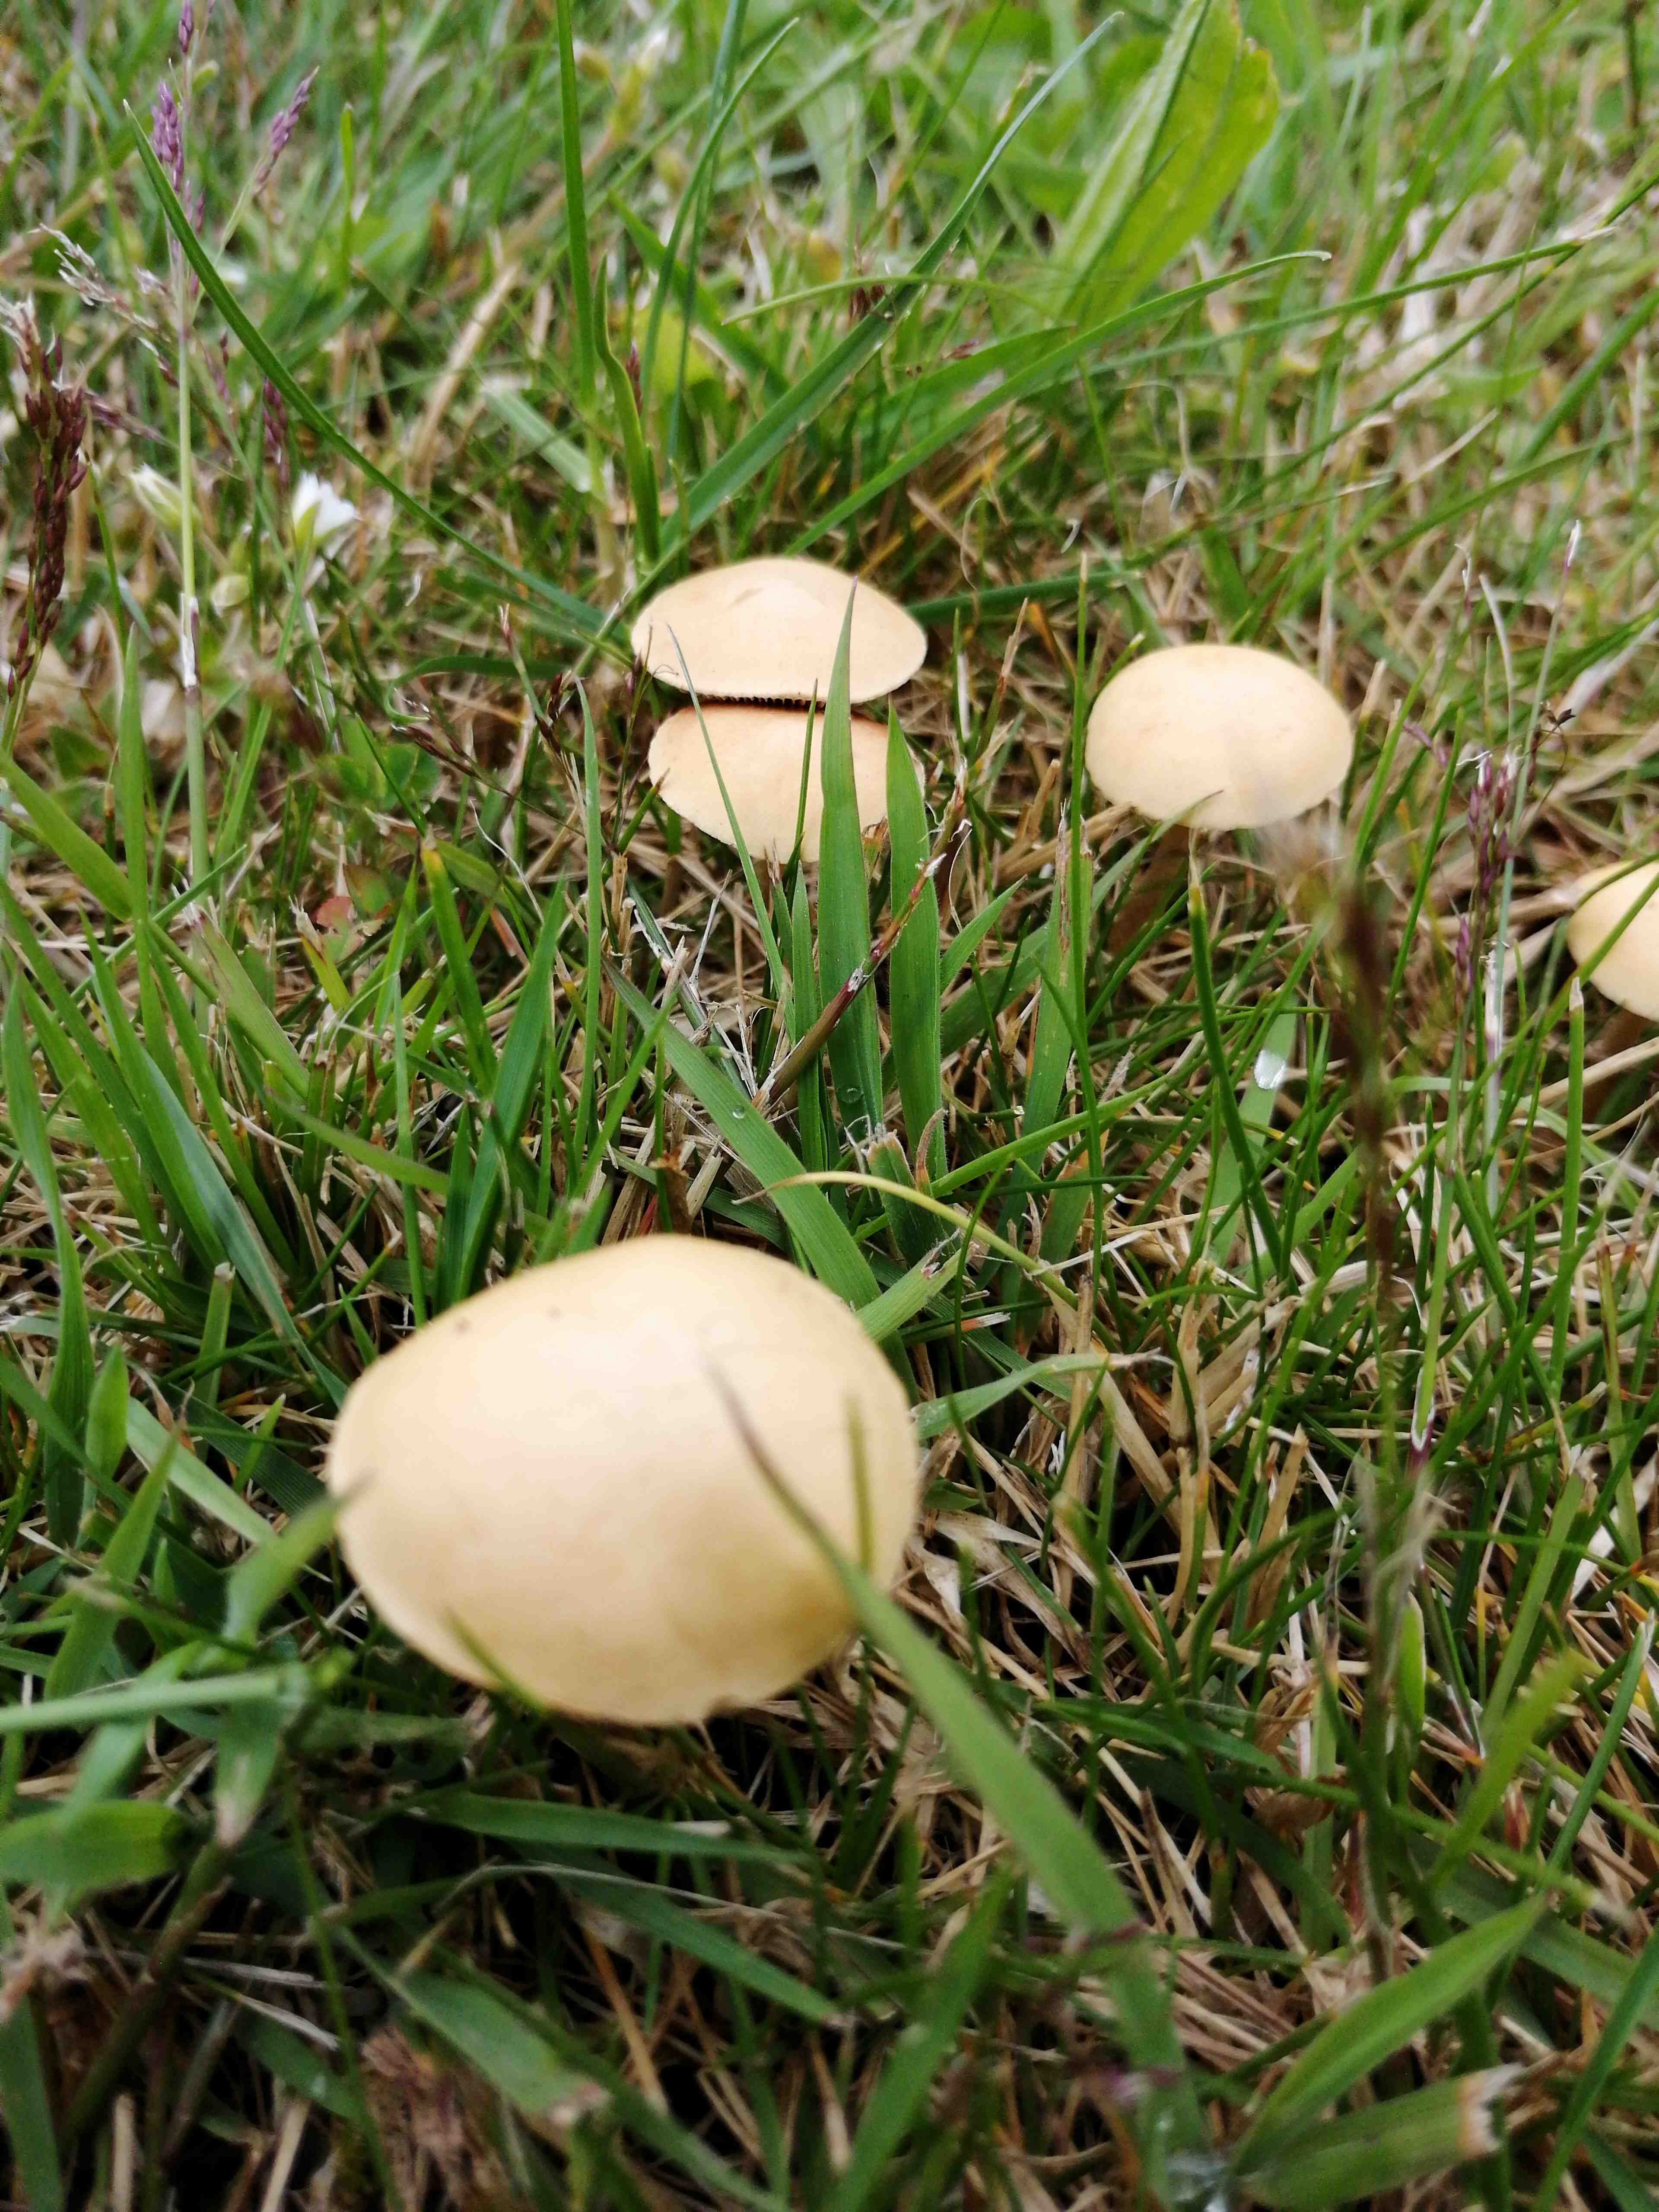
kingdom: Fungi
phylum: Basidiomycota
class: Agaricomycetes
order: Agaricales
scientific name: Agaricales
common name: champignonordenen
